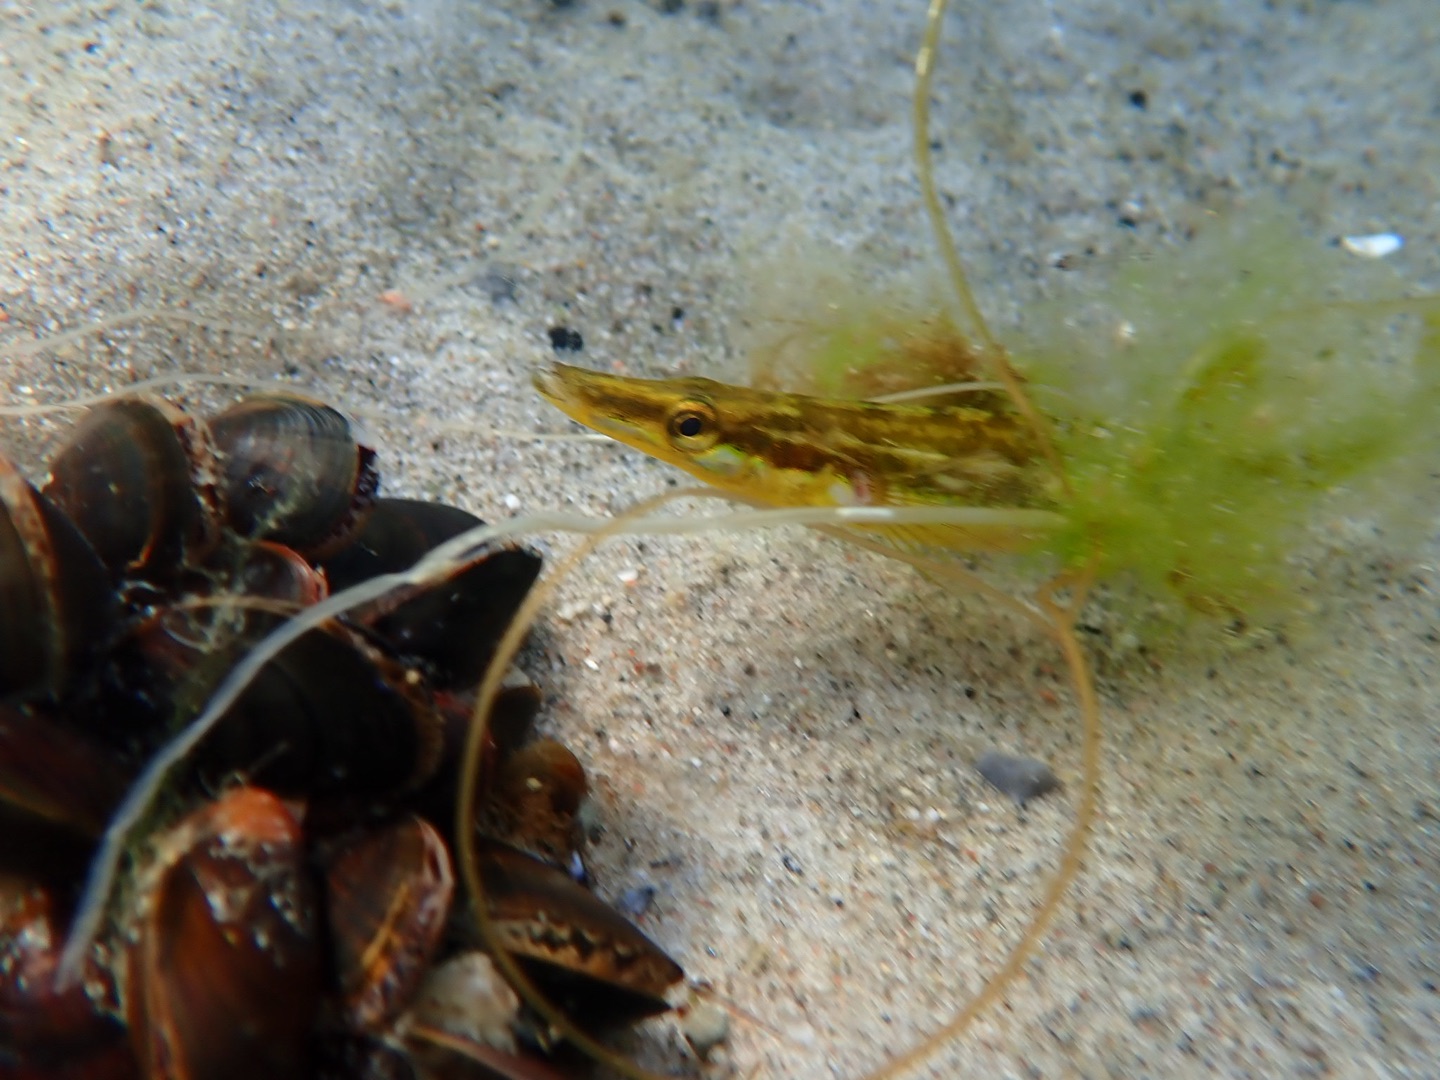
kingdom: Animalia
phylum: Chordata
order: Gasterosteiformes
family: Gasterosteidae
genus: Spinachia
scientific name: Spinachia spinachia
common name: Tangsnarre
